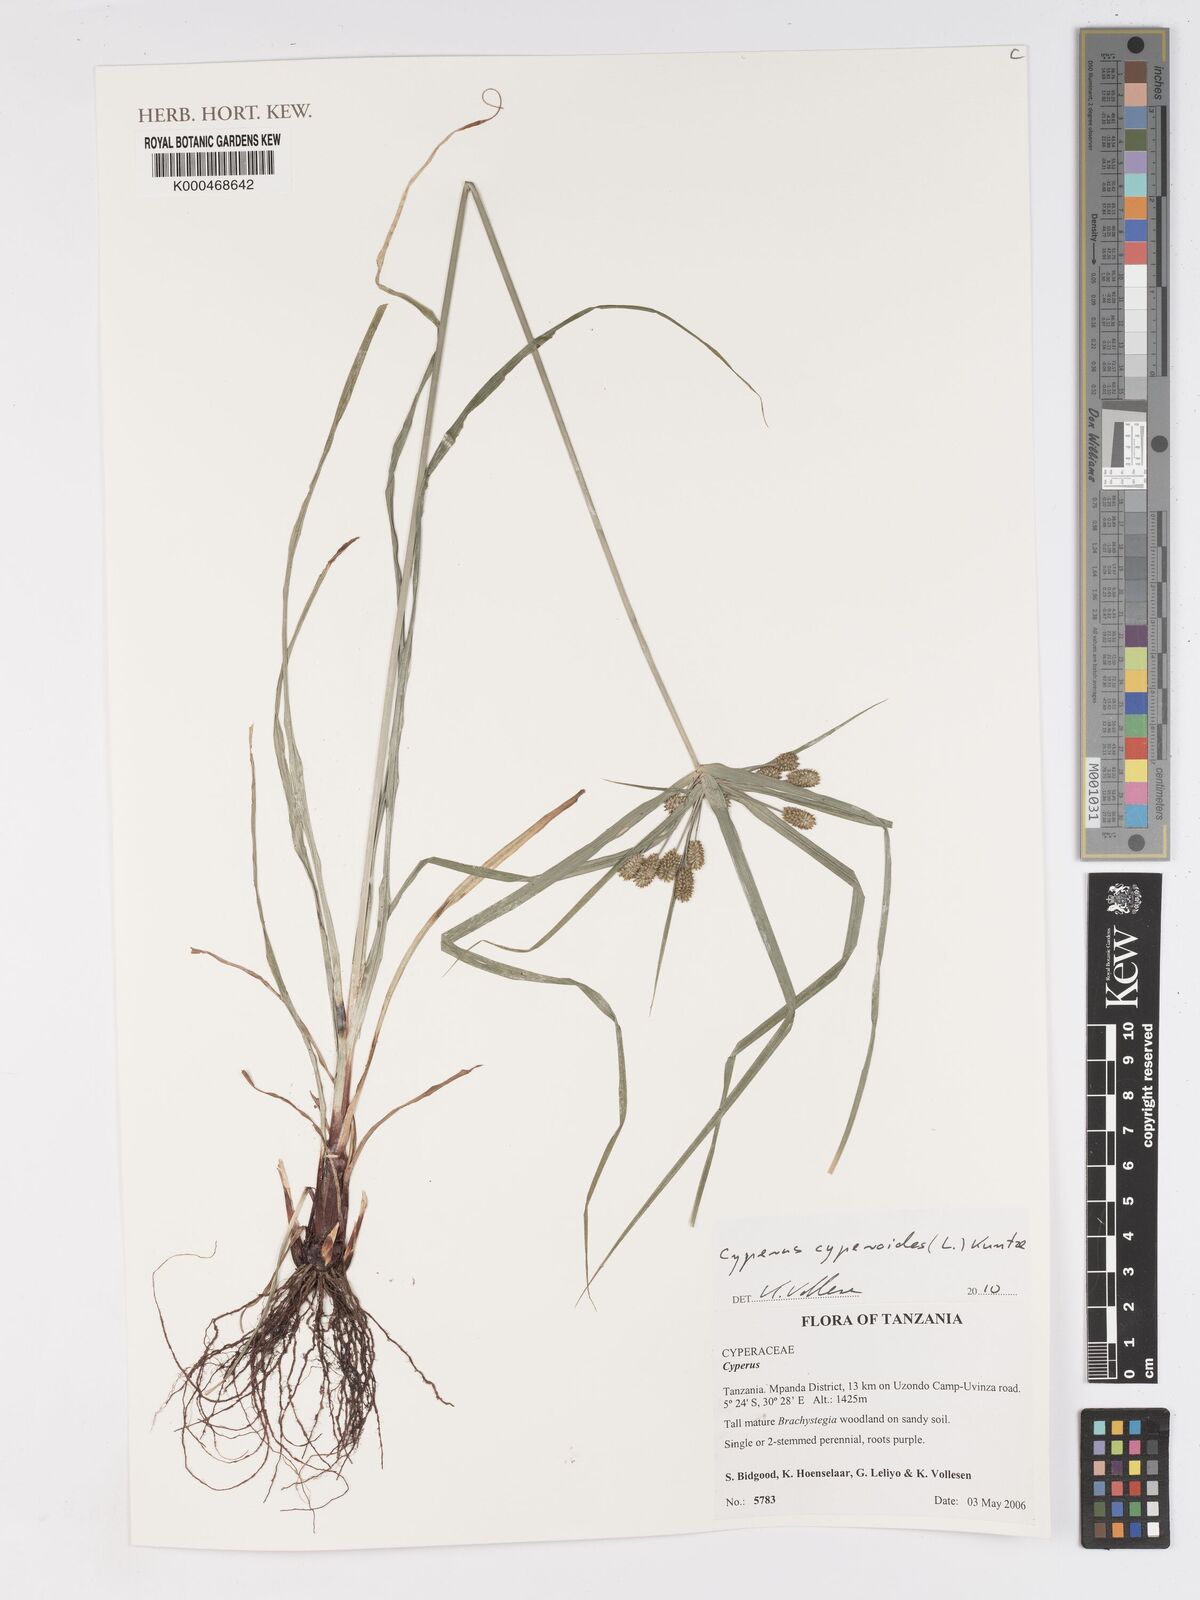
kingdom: Plantae
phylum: Tracheophyta
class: Liliopsida
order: Poales
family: Cyperaceae
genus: Cyperus
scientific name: Cyperus
